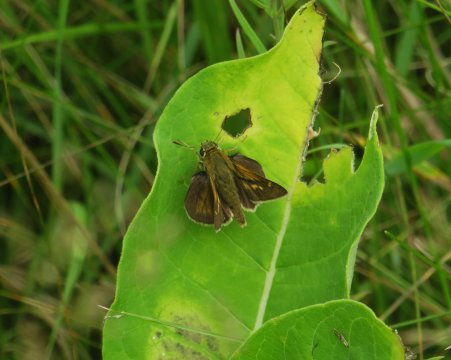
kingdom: Animalia
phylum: Arthropoda
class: Insecta
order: Lepidoptera
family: Hesperiidae
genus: Polites
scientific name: Polites
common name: Crossline Skipper
